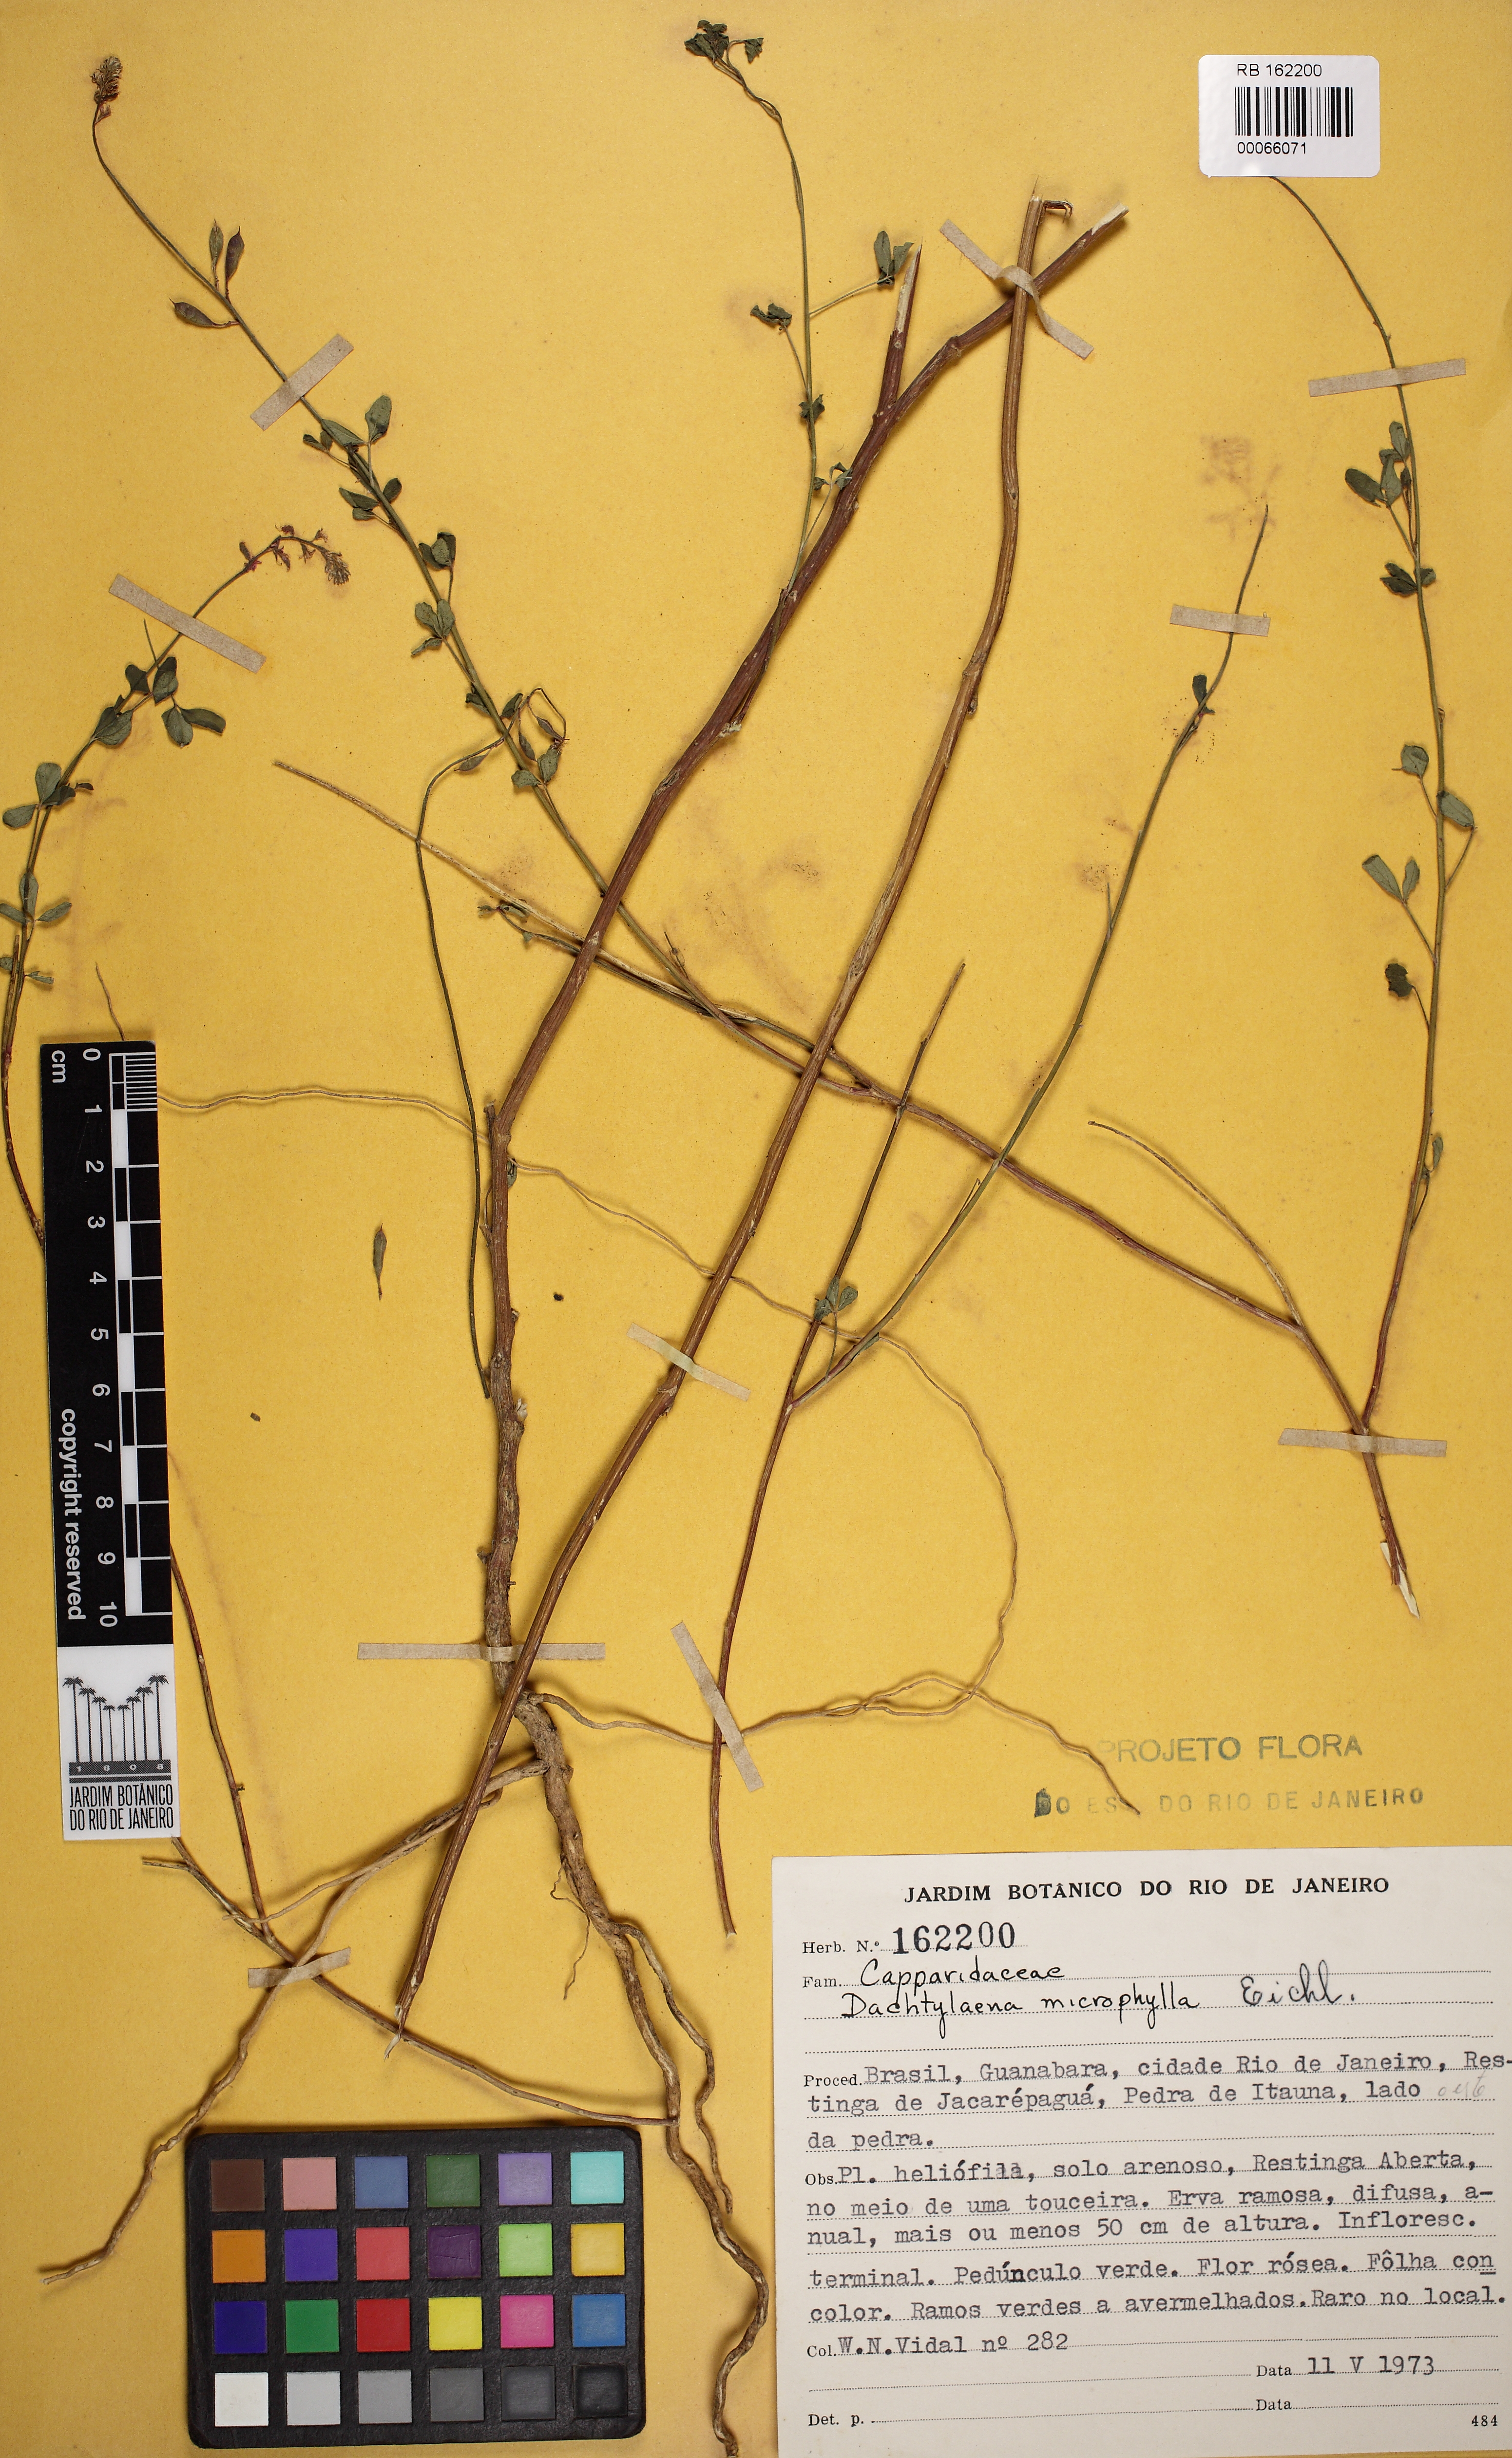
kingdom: Plantae
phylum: Tracheophyta
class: Magnoliopsida
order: Brassicales
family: Cleomaceae
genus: Dactylaena
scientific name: Dactylaena microphylla
